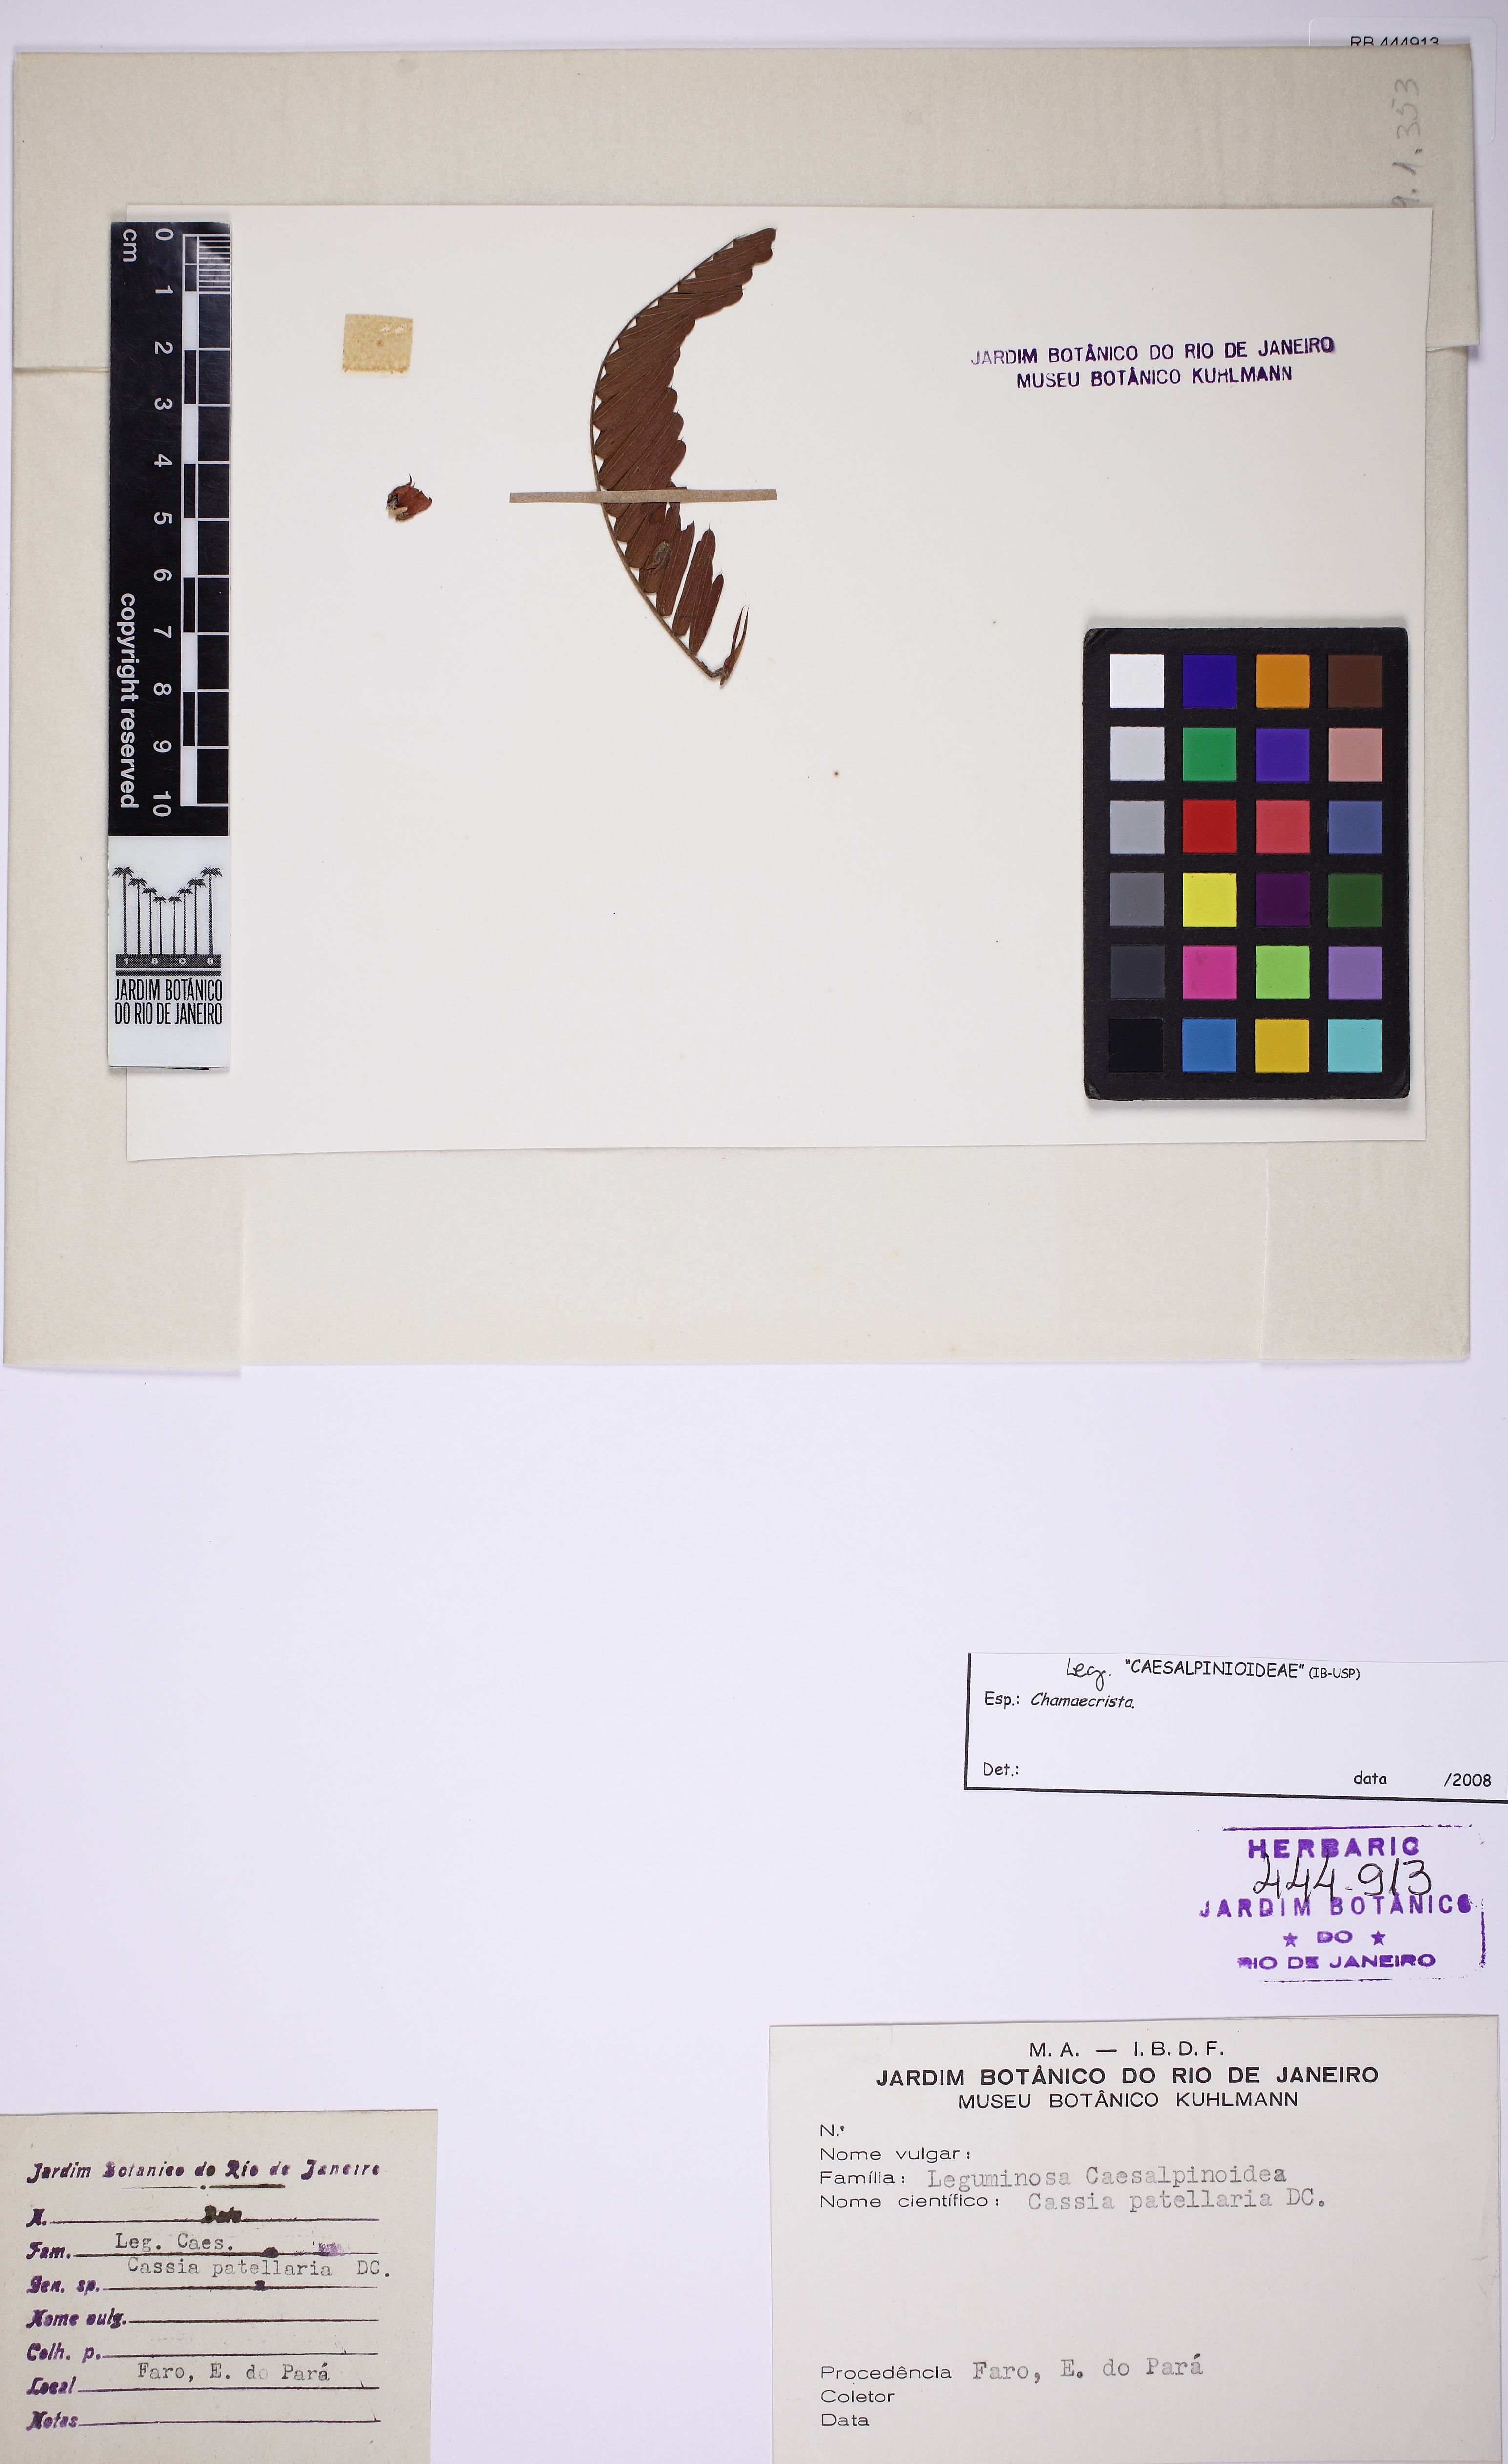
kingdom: Plantae
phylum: Tracheophyta
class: Magnoliopsida
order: Fabales
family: Fabaceae
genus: Chamaecrista
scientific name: Chamaecrista
